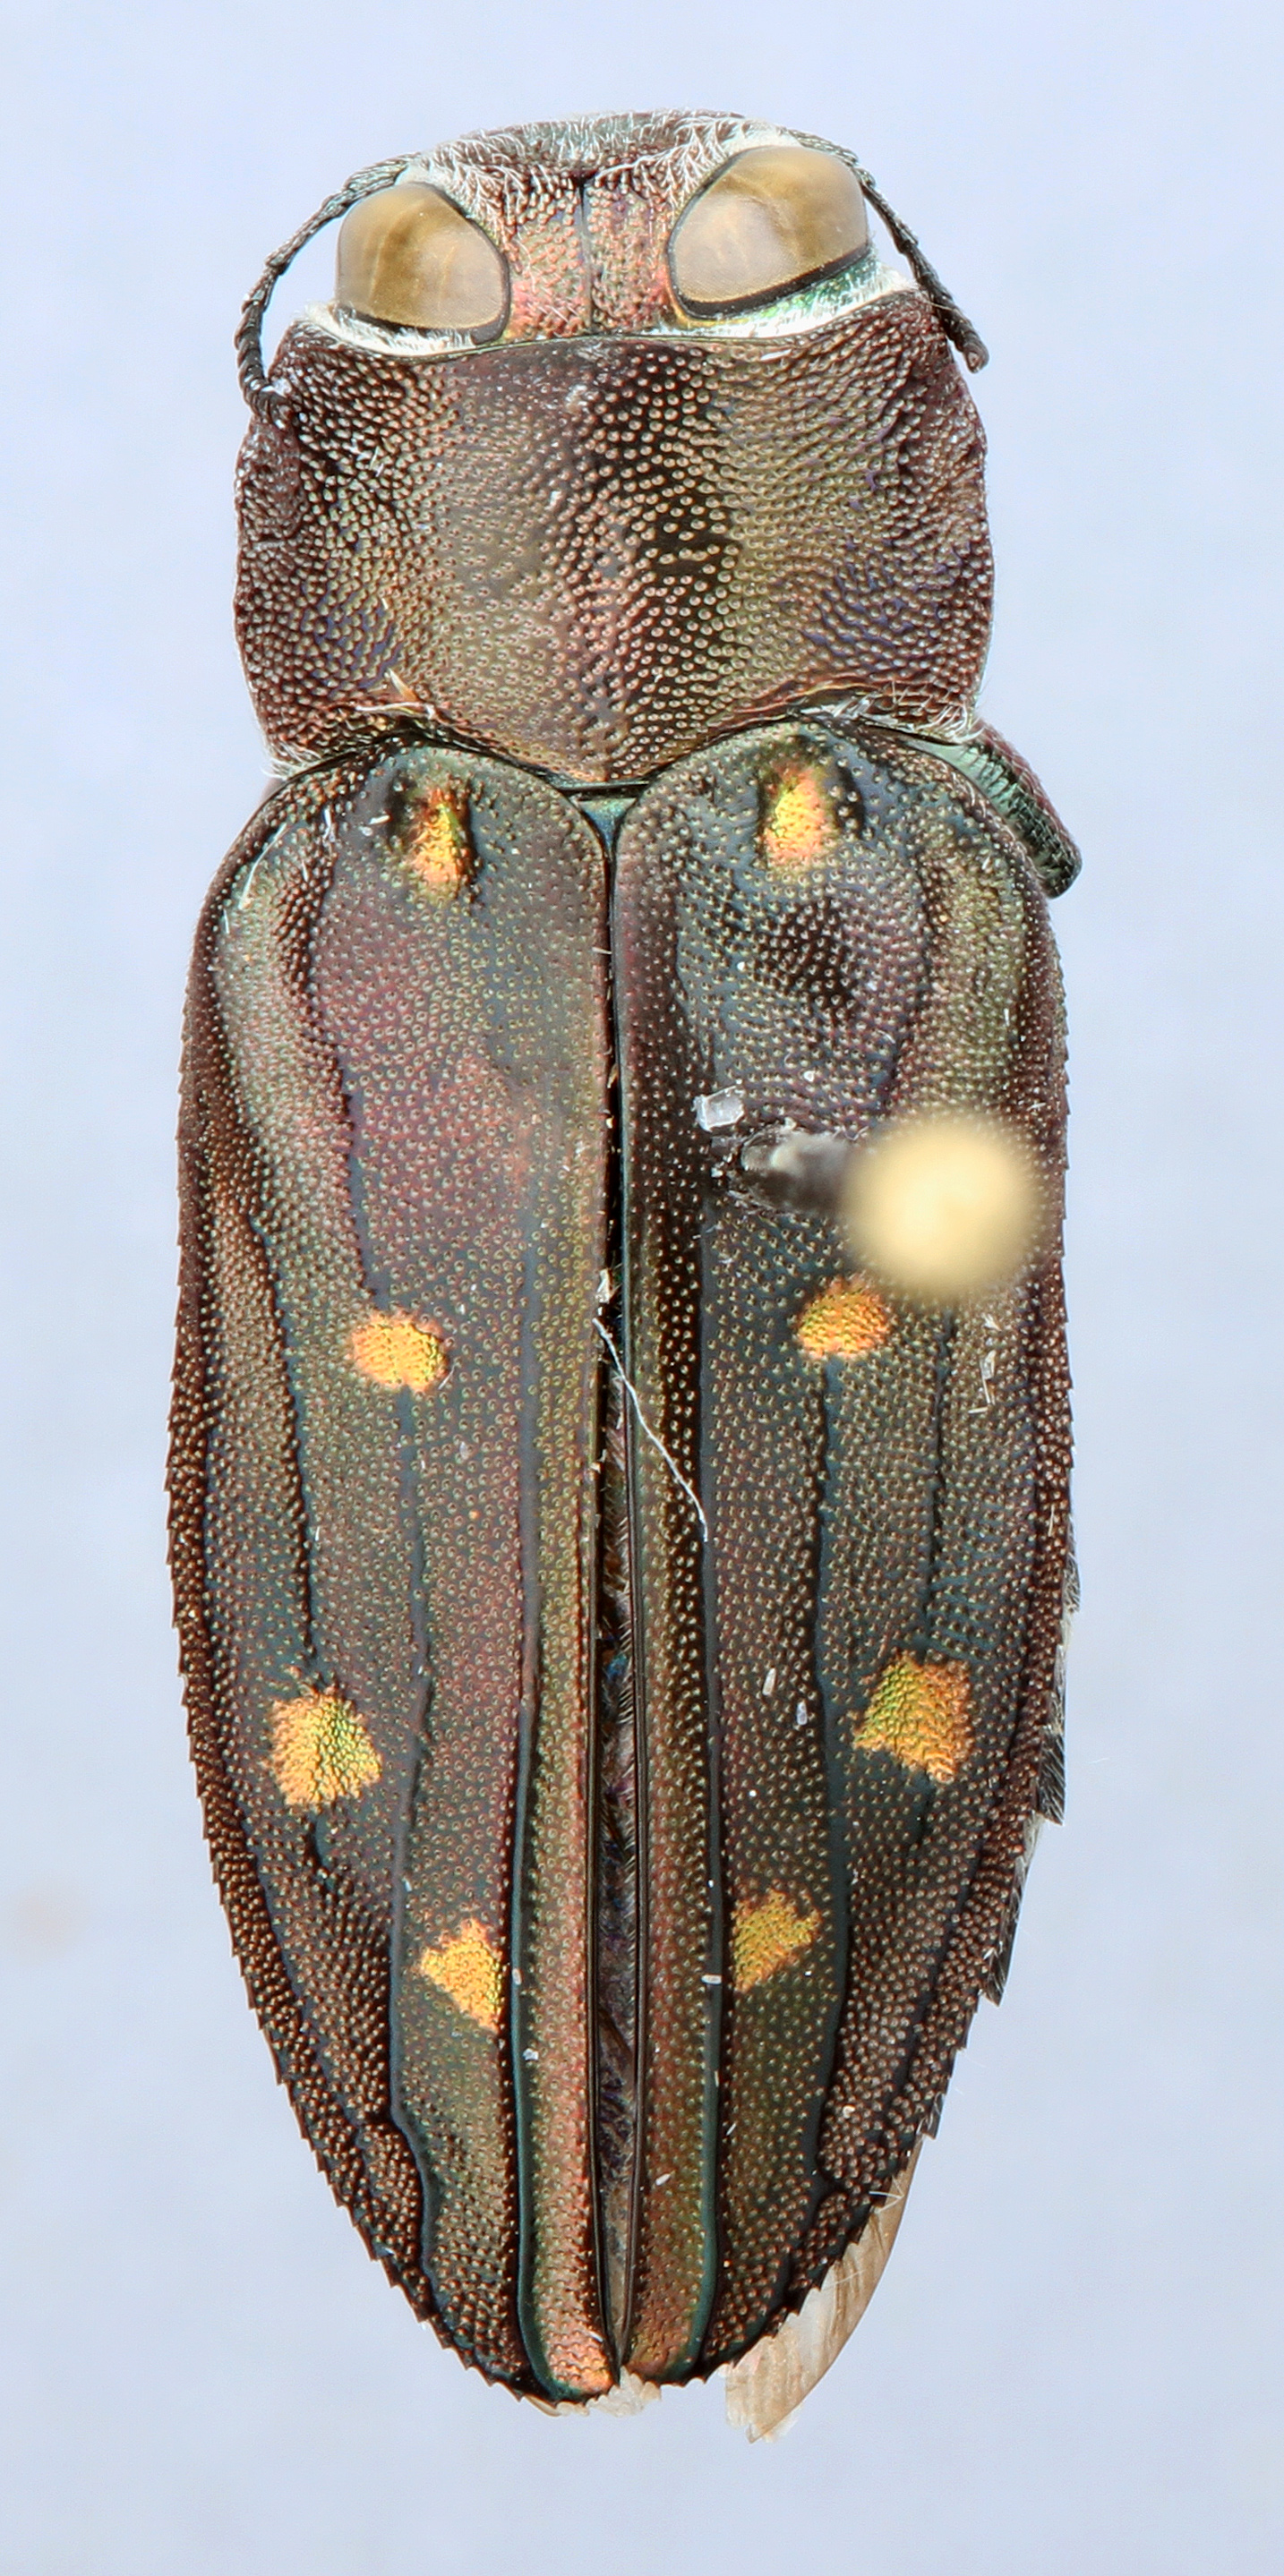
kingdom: Animalia
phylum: Arthropoda
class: Insecta
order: Coleoptera
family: Buprestidae
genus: Chrysobothris
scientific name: Chrysobothris octocola
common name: Jewel beetle
